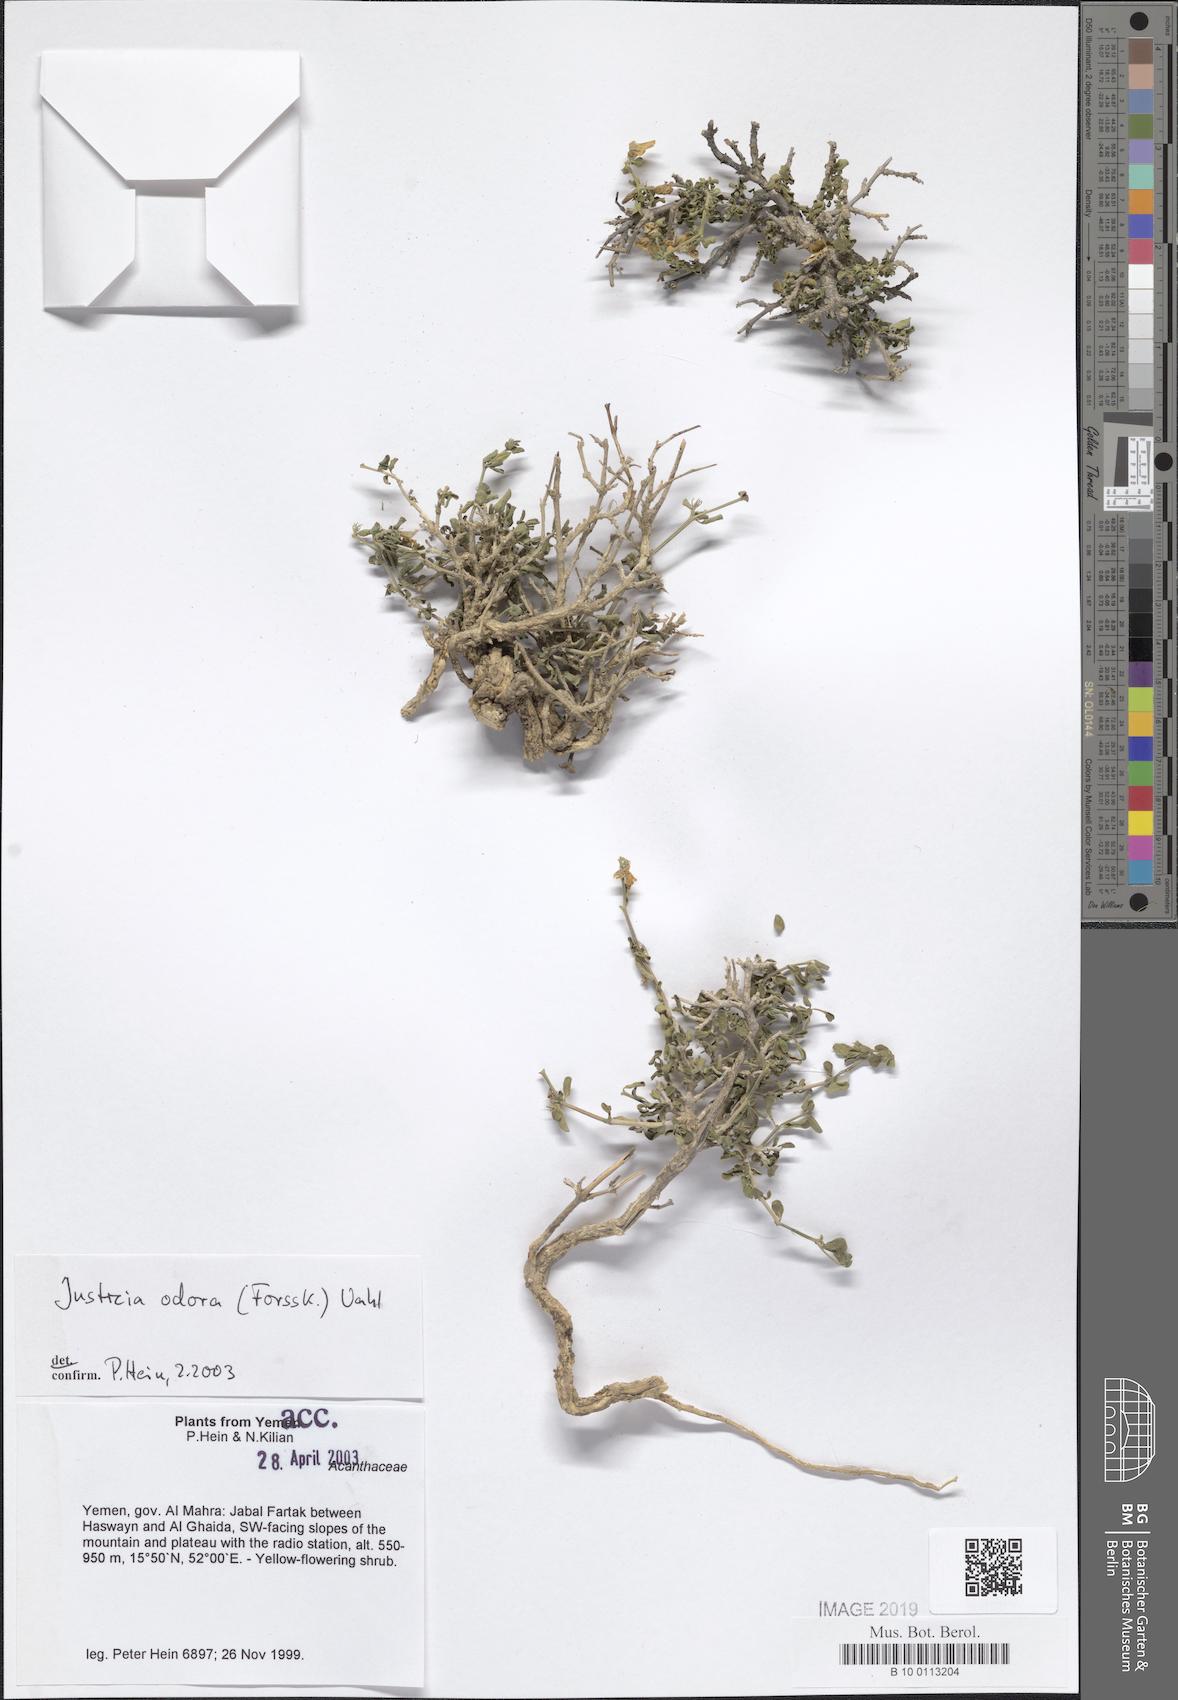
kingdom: Plantae
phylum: Tracheophyta
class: Magnoliopsida
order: Lamiales
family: Acanthaceae
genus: Justicia
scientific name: Justicia odora
